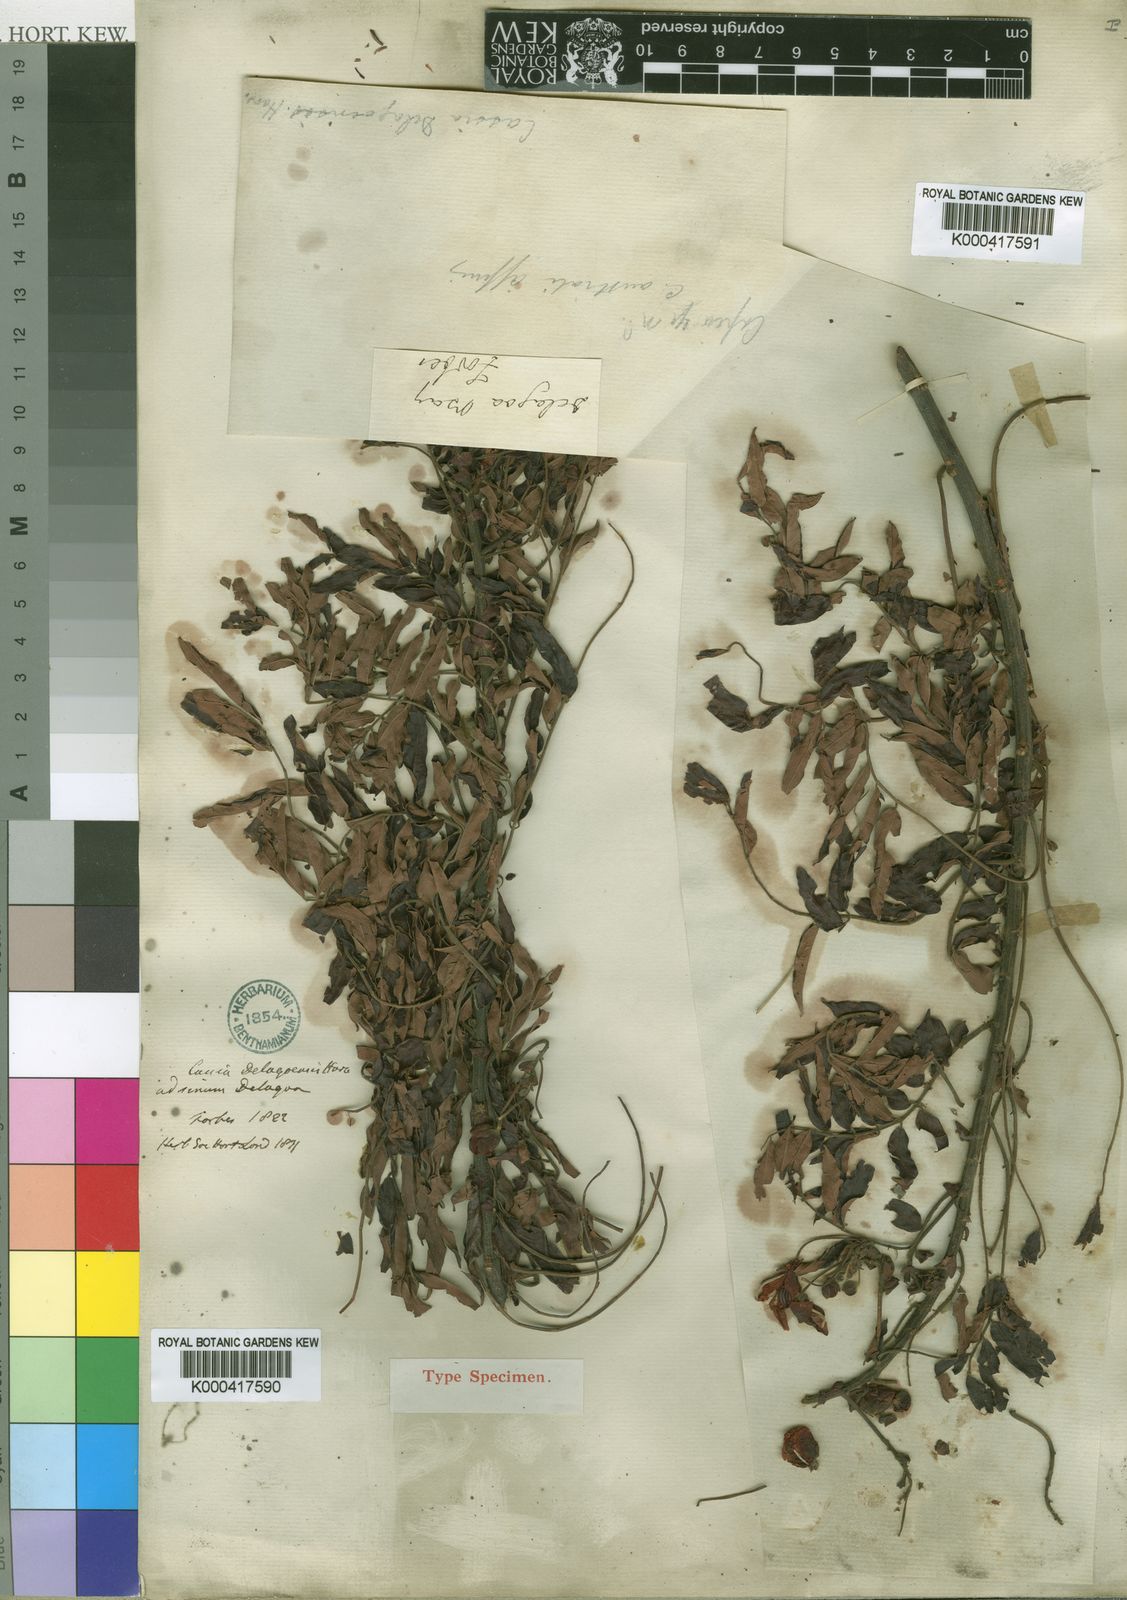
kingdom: Plantae
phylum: Tracheophyta
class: Magnoliopsida
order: Fabales
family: Fabaceae
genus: Senna
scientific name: Senna petersiana
